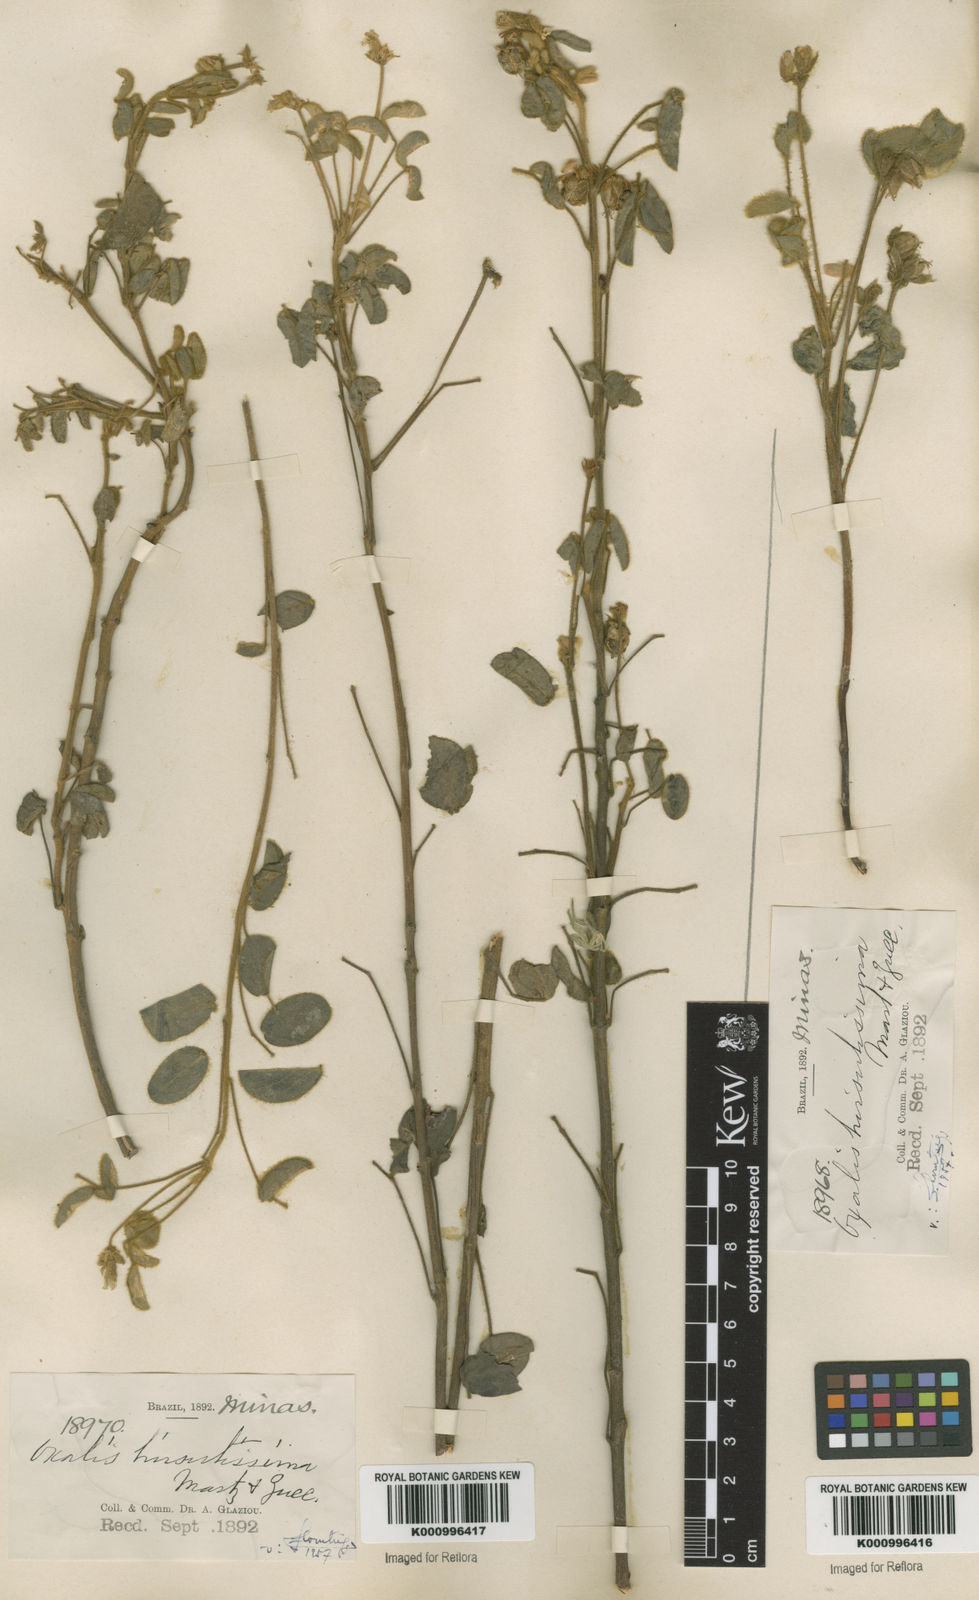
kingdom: Plantae
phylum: Tracheophyta
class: Magnoliopsida
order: Oxalidales
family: Oxalidaceae
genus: Oxalis
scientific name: Oxalis hirsutissima
